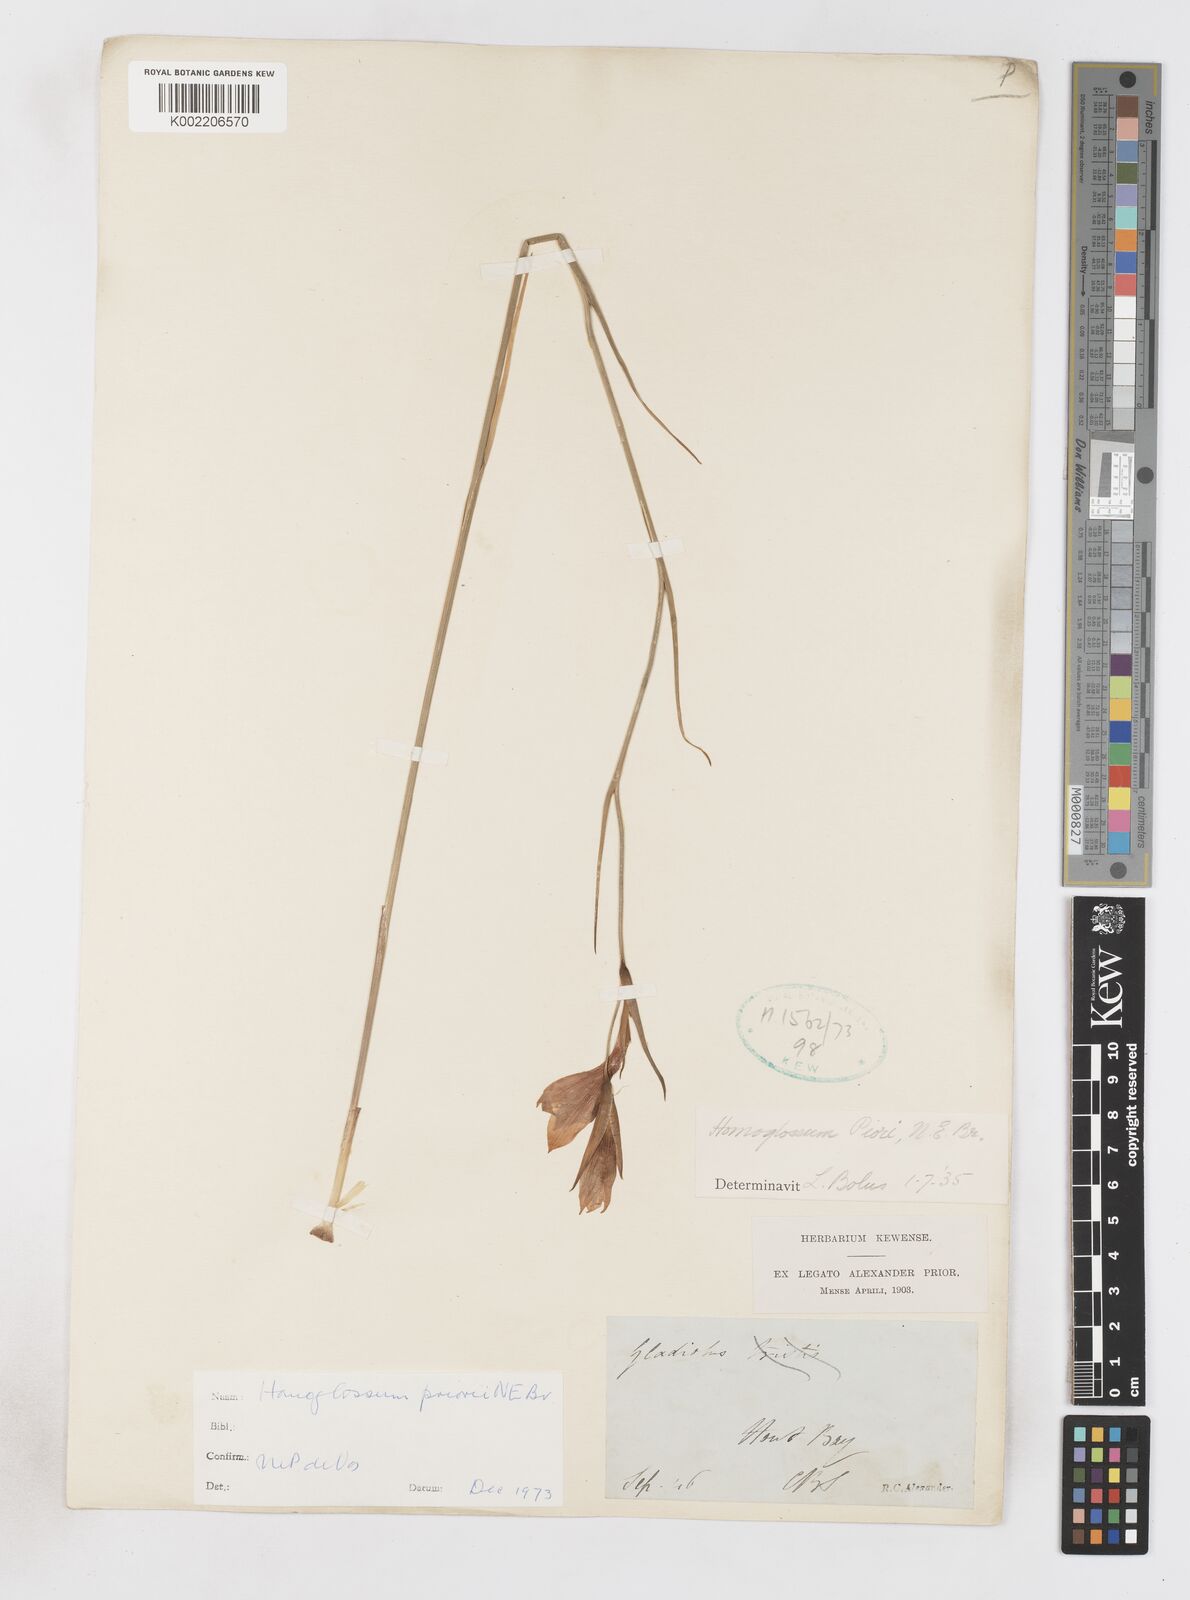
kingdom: Plantae
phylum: Tracheophyta
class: Liliopsida
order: Asparagales
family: Iridaceae
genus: Gladiolus
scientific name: Gladiolus priorii
